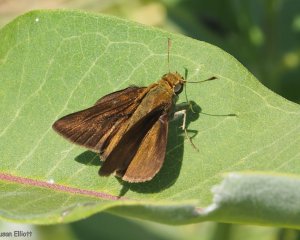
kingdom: Animalia
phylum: Arthropoda
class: Insecta
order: Lepidoptera
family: Hesperiidae
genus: Euphyes
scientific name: Euphyes vestris
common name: Dun Skipper
